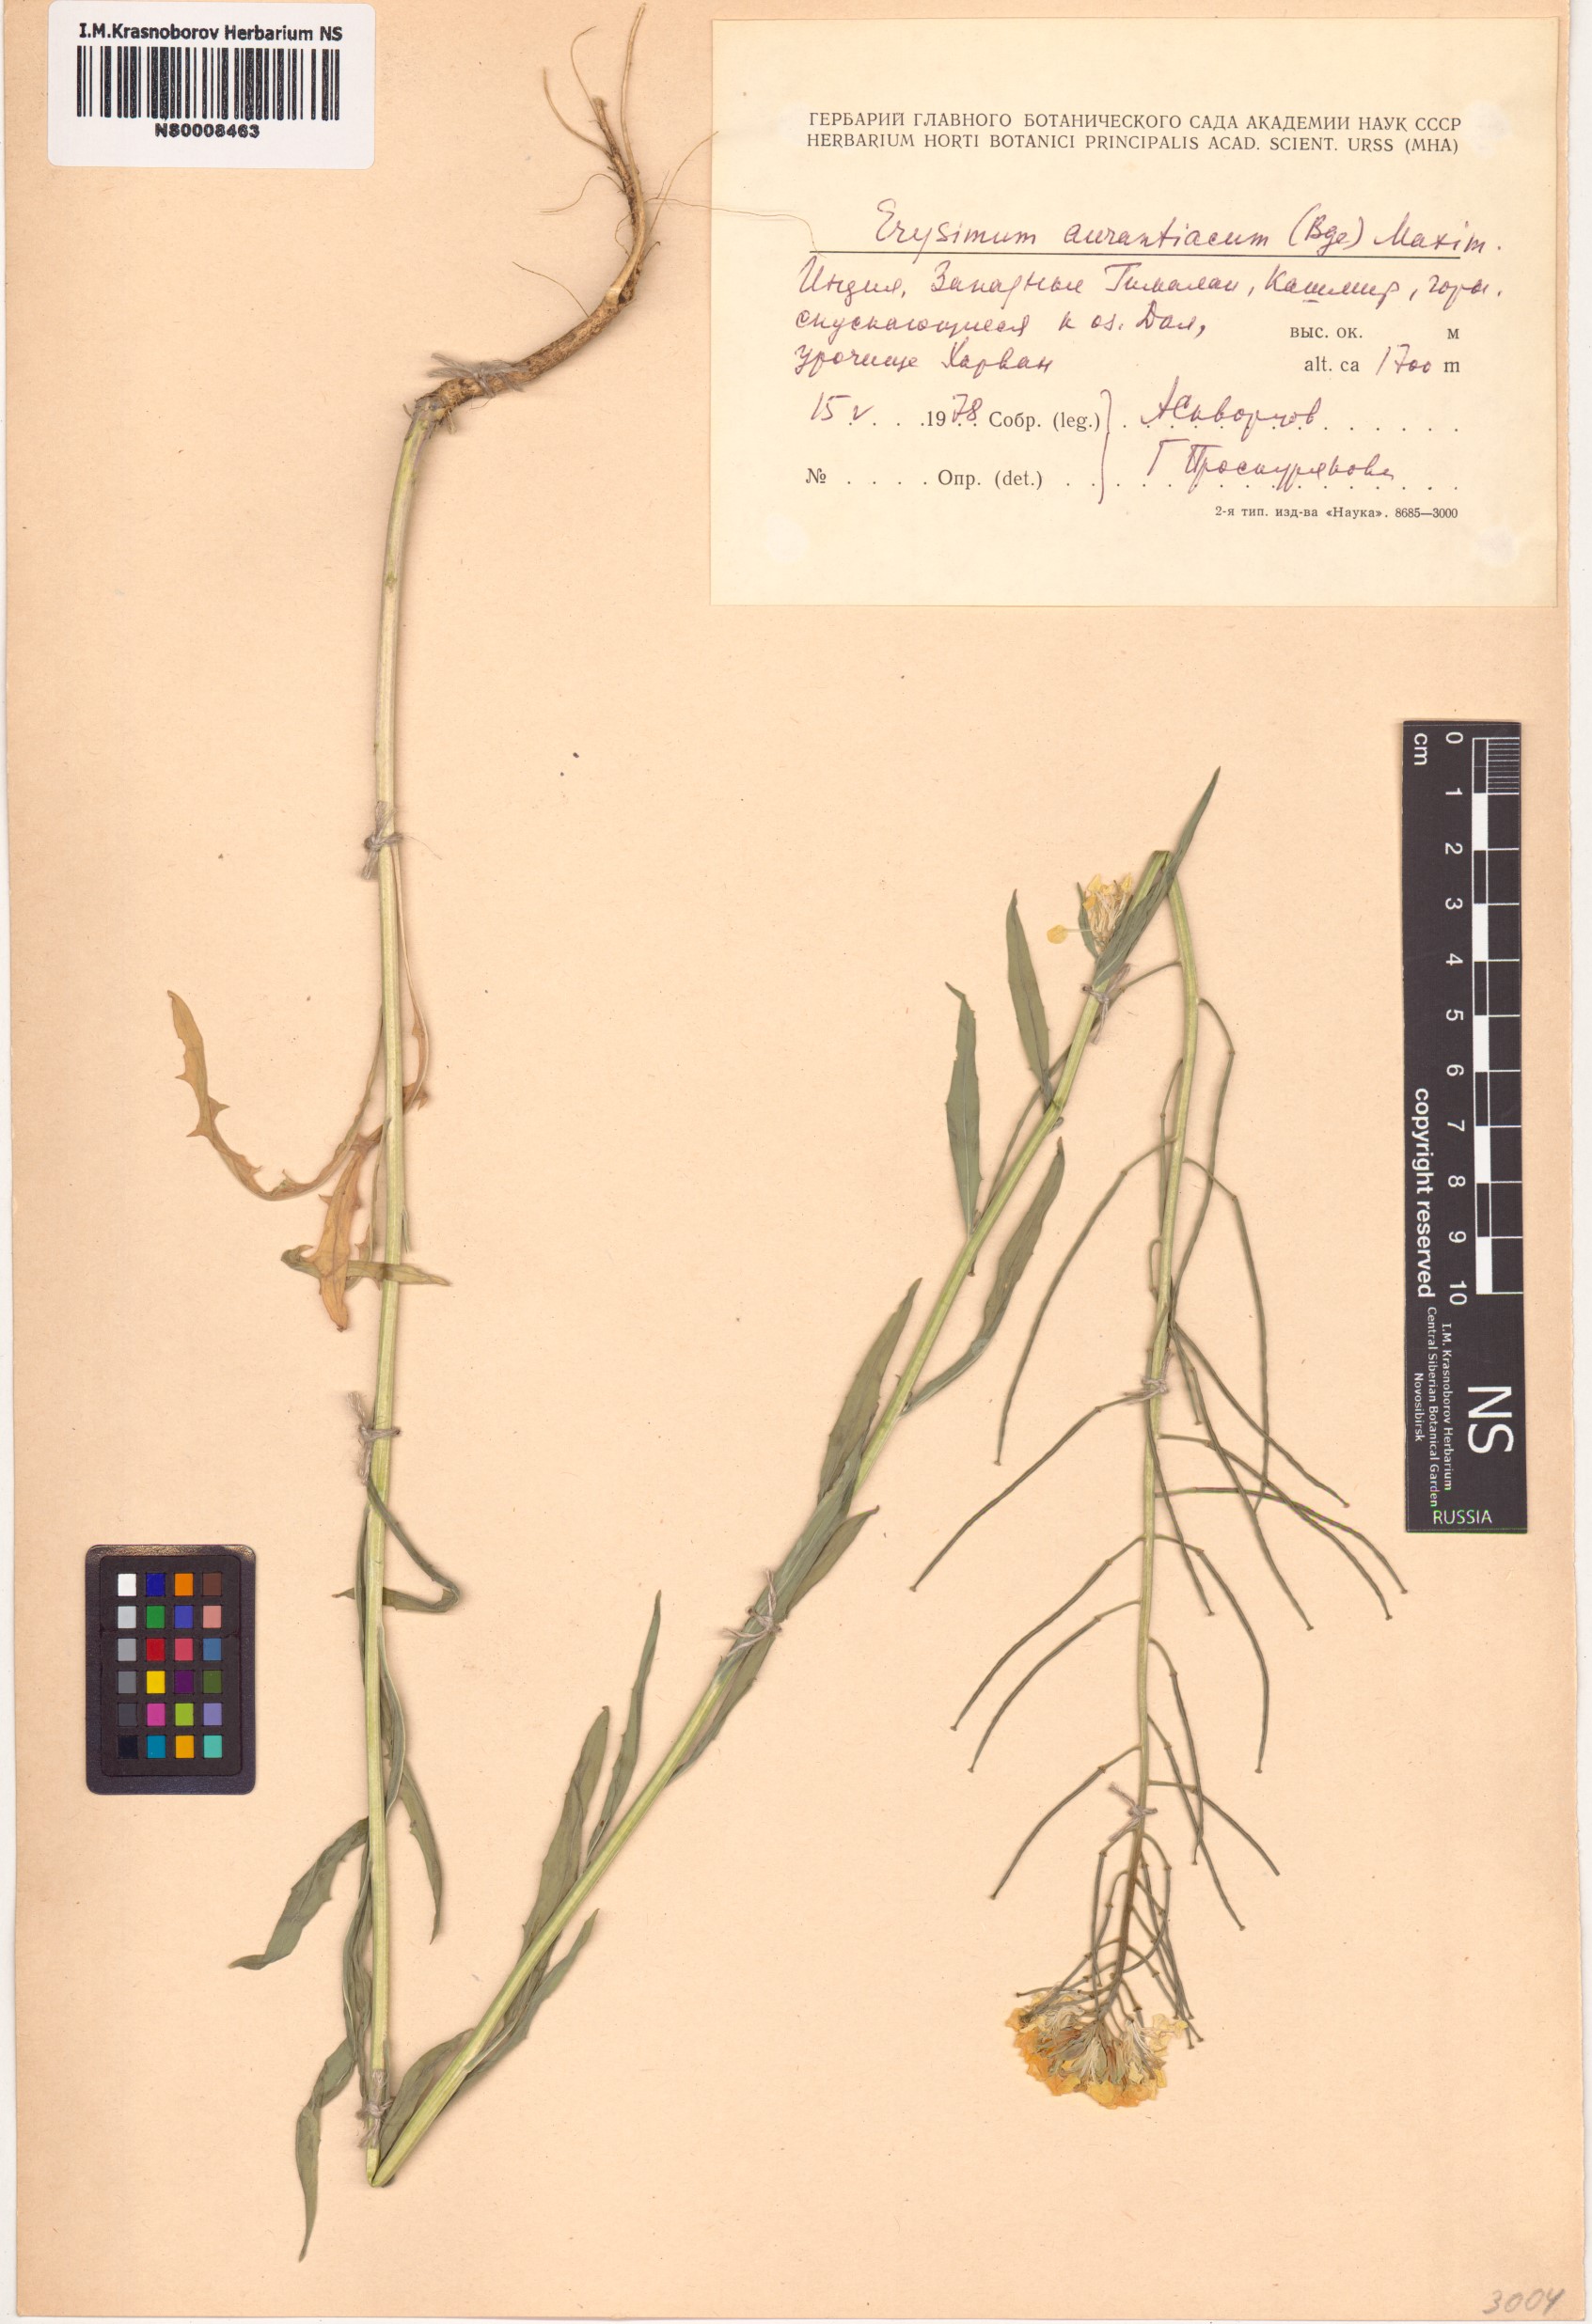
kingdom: Plantae
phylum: Tracheophyta
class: Magnoliopsida
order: Brassicales
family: Brassicaceae
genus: Erysimum
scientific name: Erysimum amurense
